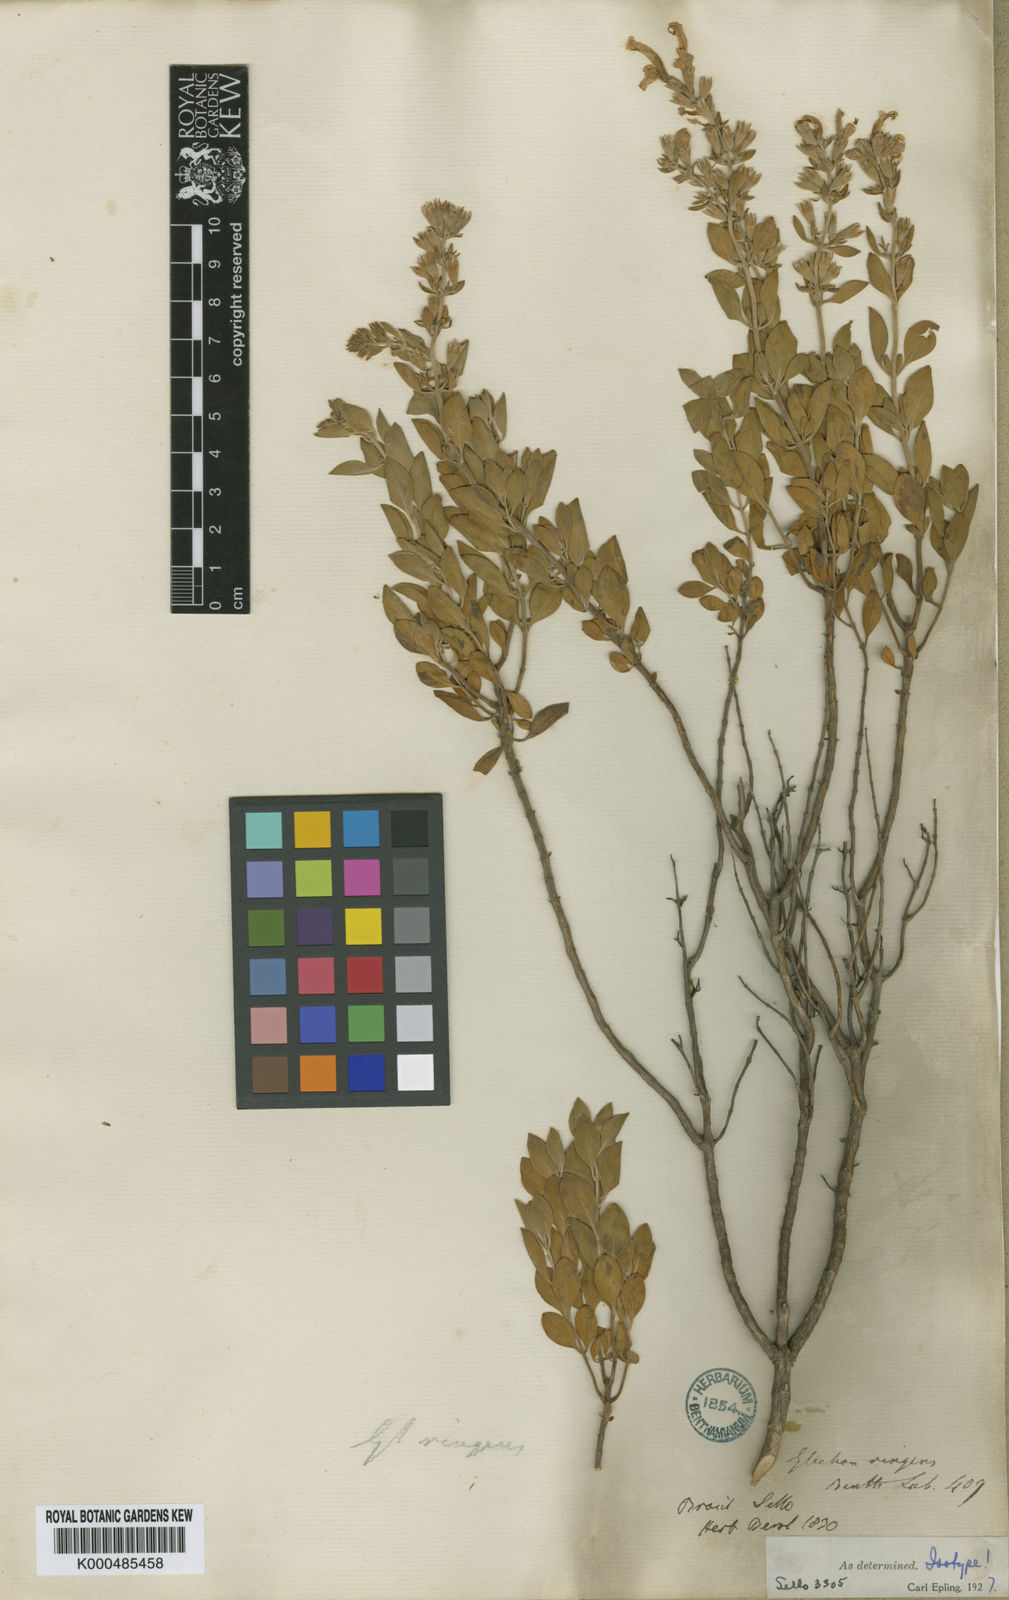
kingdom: Plantae
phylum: Tracheophyta
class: Magnoliopsida
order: Lamiales
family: Lamiaceae
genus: Hesperozygis
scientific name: Hesperozygis ringens
